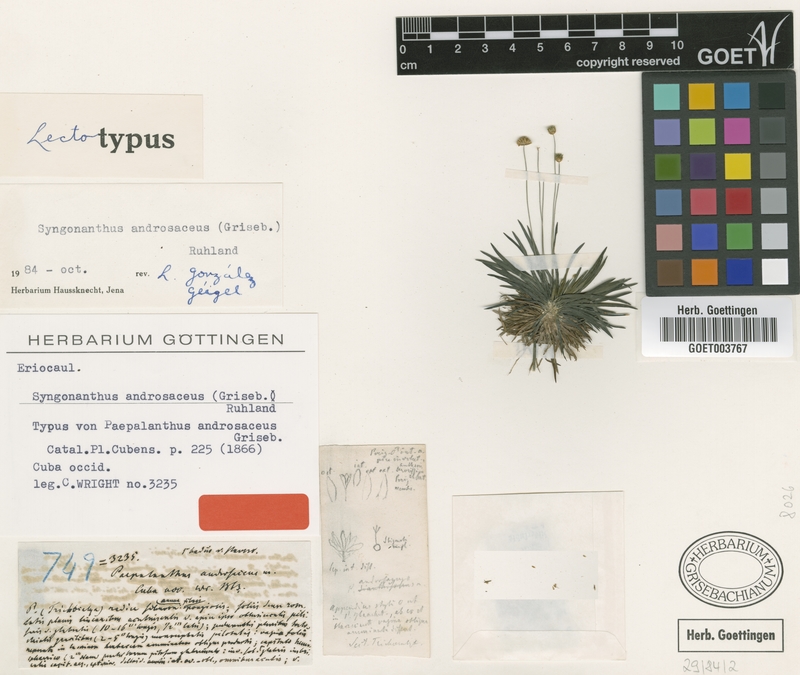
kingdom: Plantae
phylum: Tracheophyta
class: Liliopsida
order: Poales
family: Eriocaulaceae
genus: Syngonanthus
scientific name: Syngonanthus androsaceus
